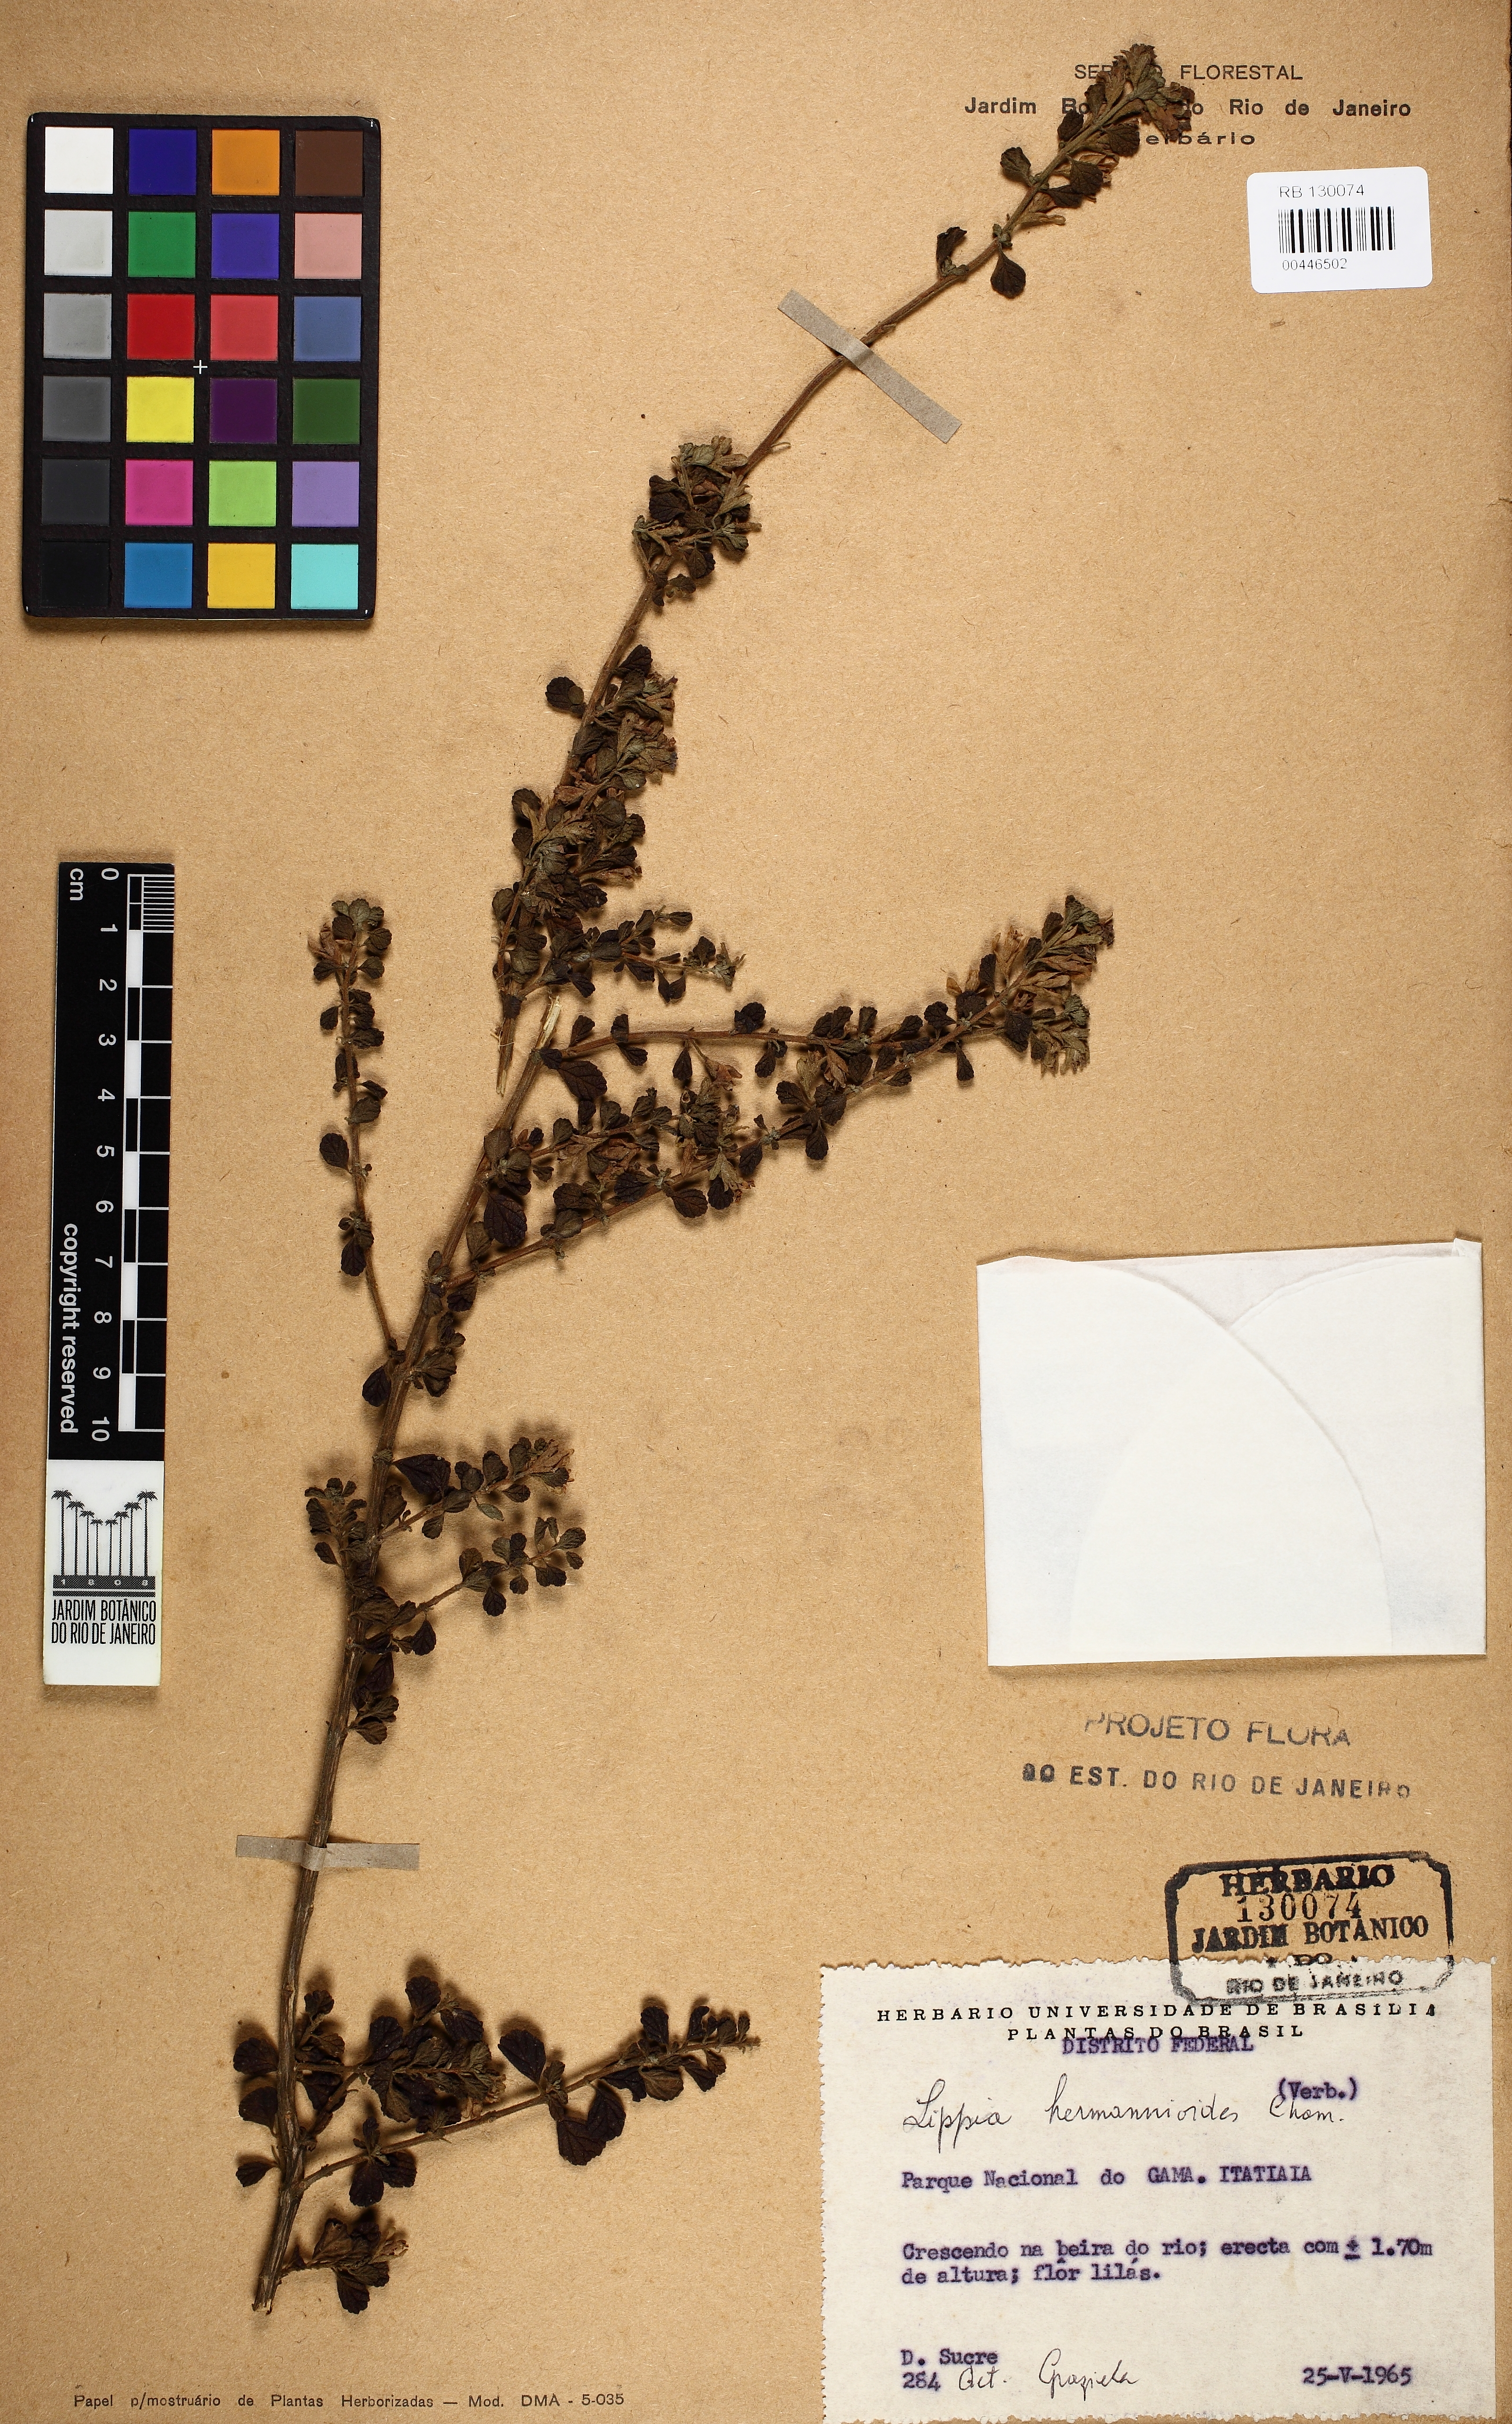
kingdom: Plantae
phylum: Tracheophyta
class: Magnoliopsida
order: Lamiales
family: Verbenaceae
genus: Lippia
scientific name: Lippia hermannioides
